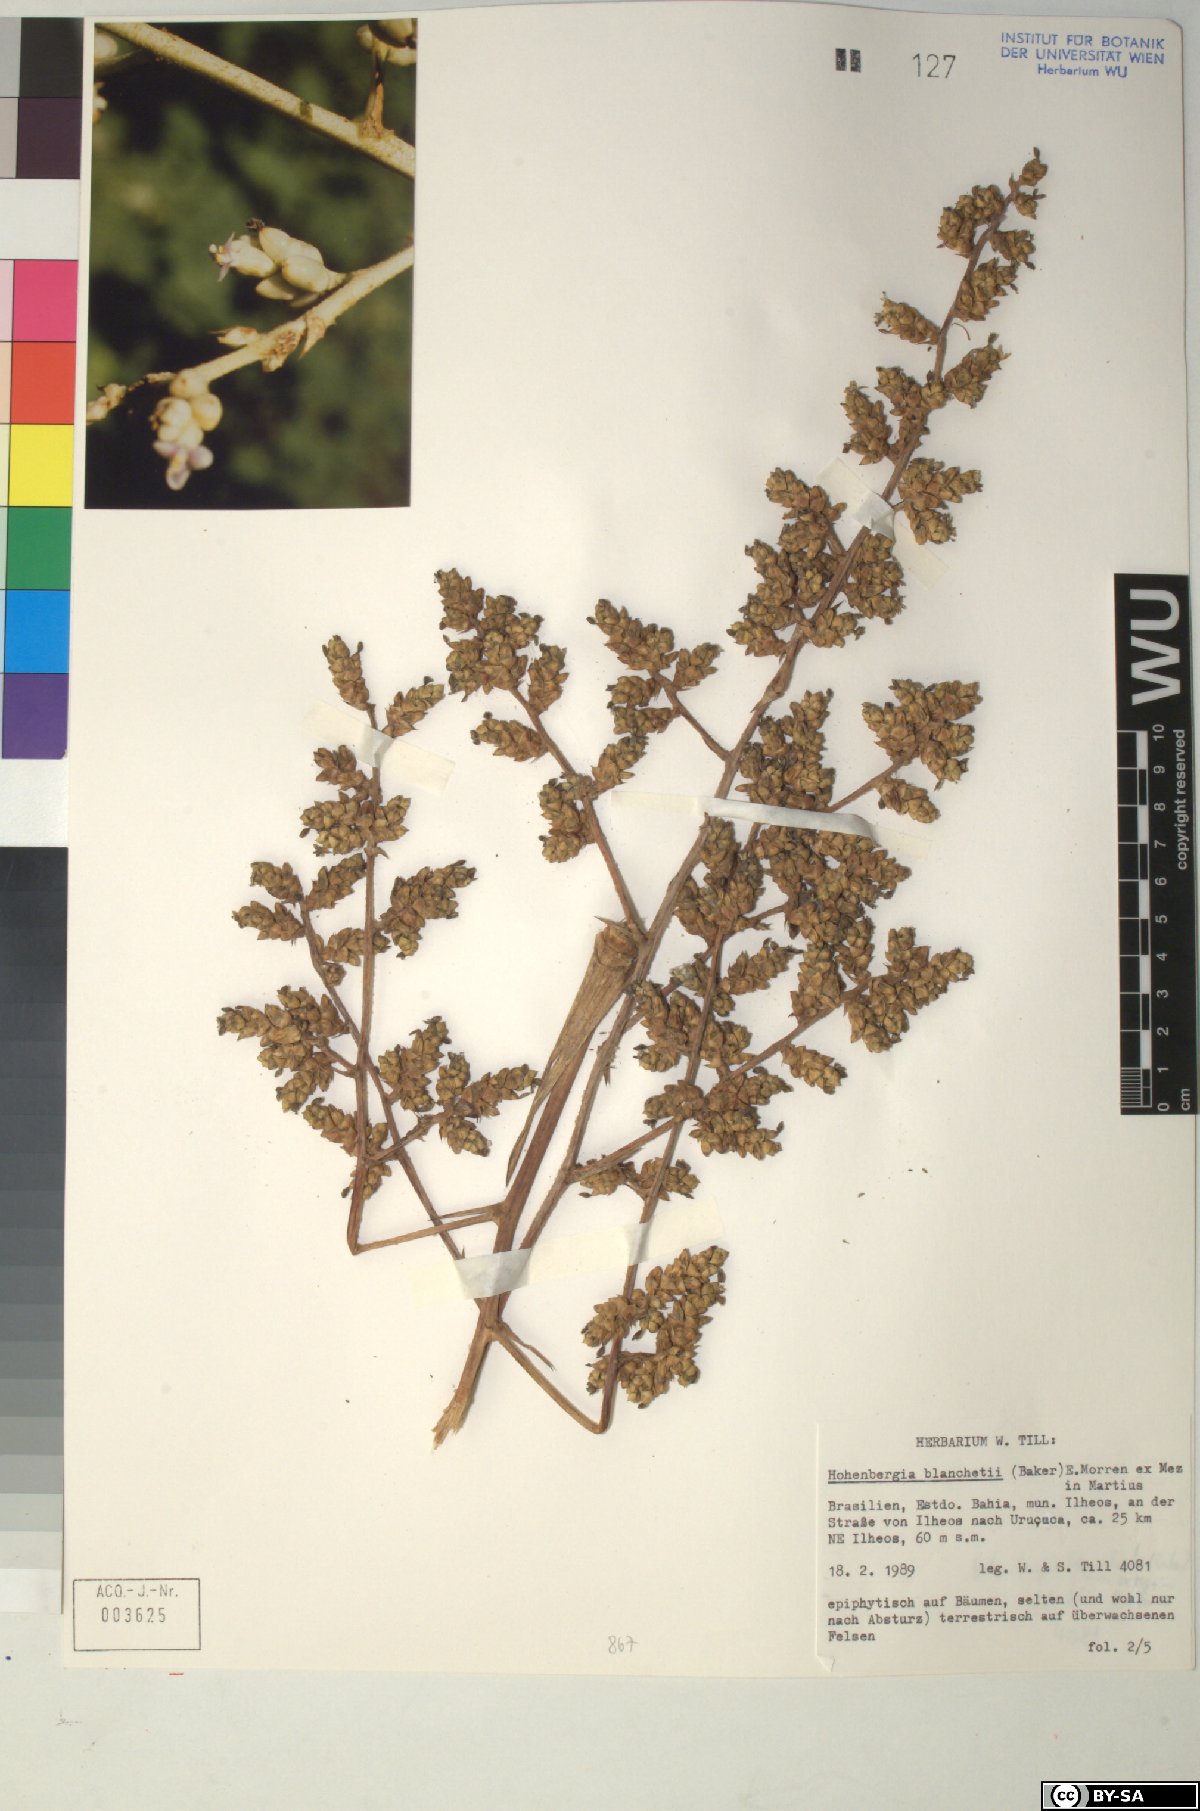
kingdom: Plantae
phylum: Tracheophyta
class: Liliopsida
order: Poales
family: Bromeliaceae
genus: Hohenbergia
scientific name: Hohenbergia blanchetii
